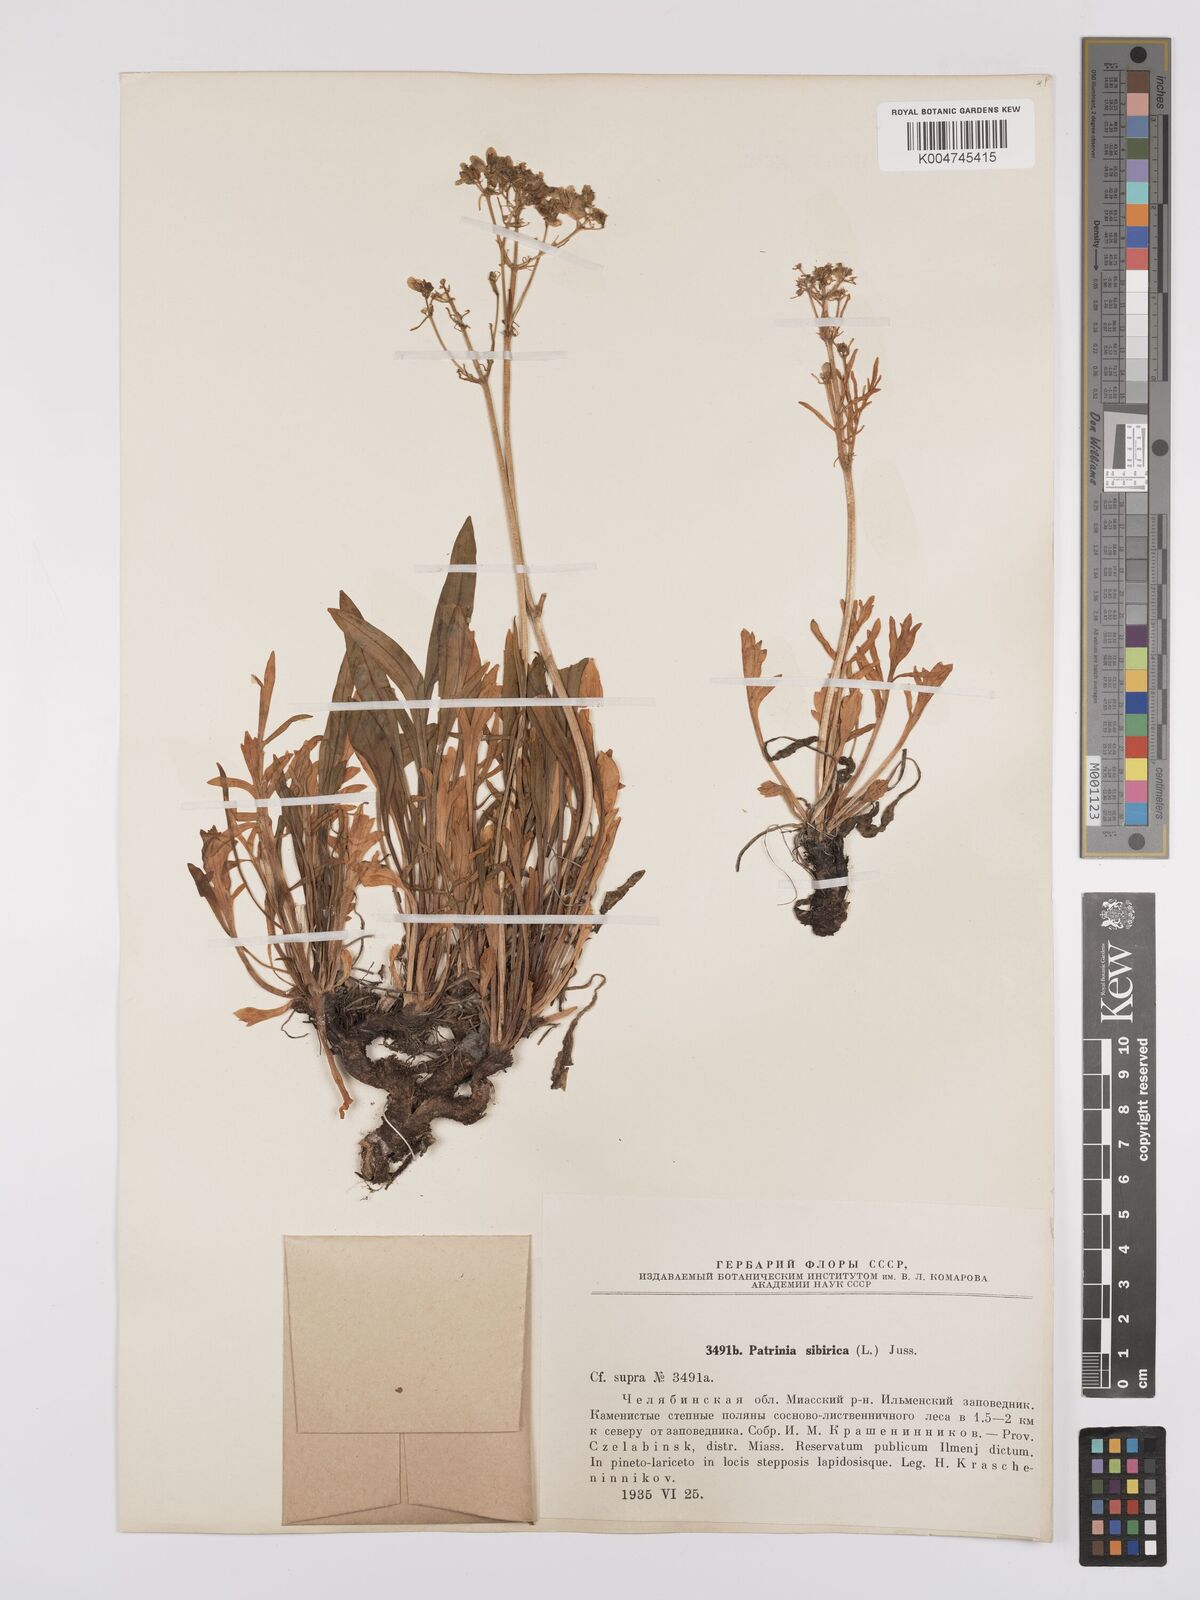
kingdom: Plantae
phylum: Tracheophyta
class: Magnoliopsida
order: Dipsacales
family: Caprifoliaceae
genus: Patrinia
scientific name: Patrinia sibirica
